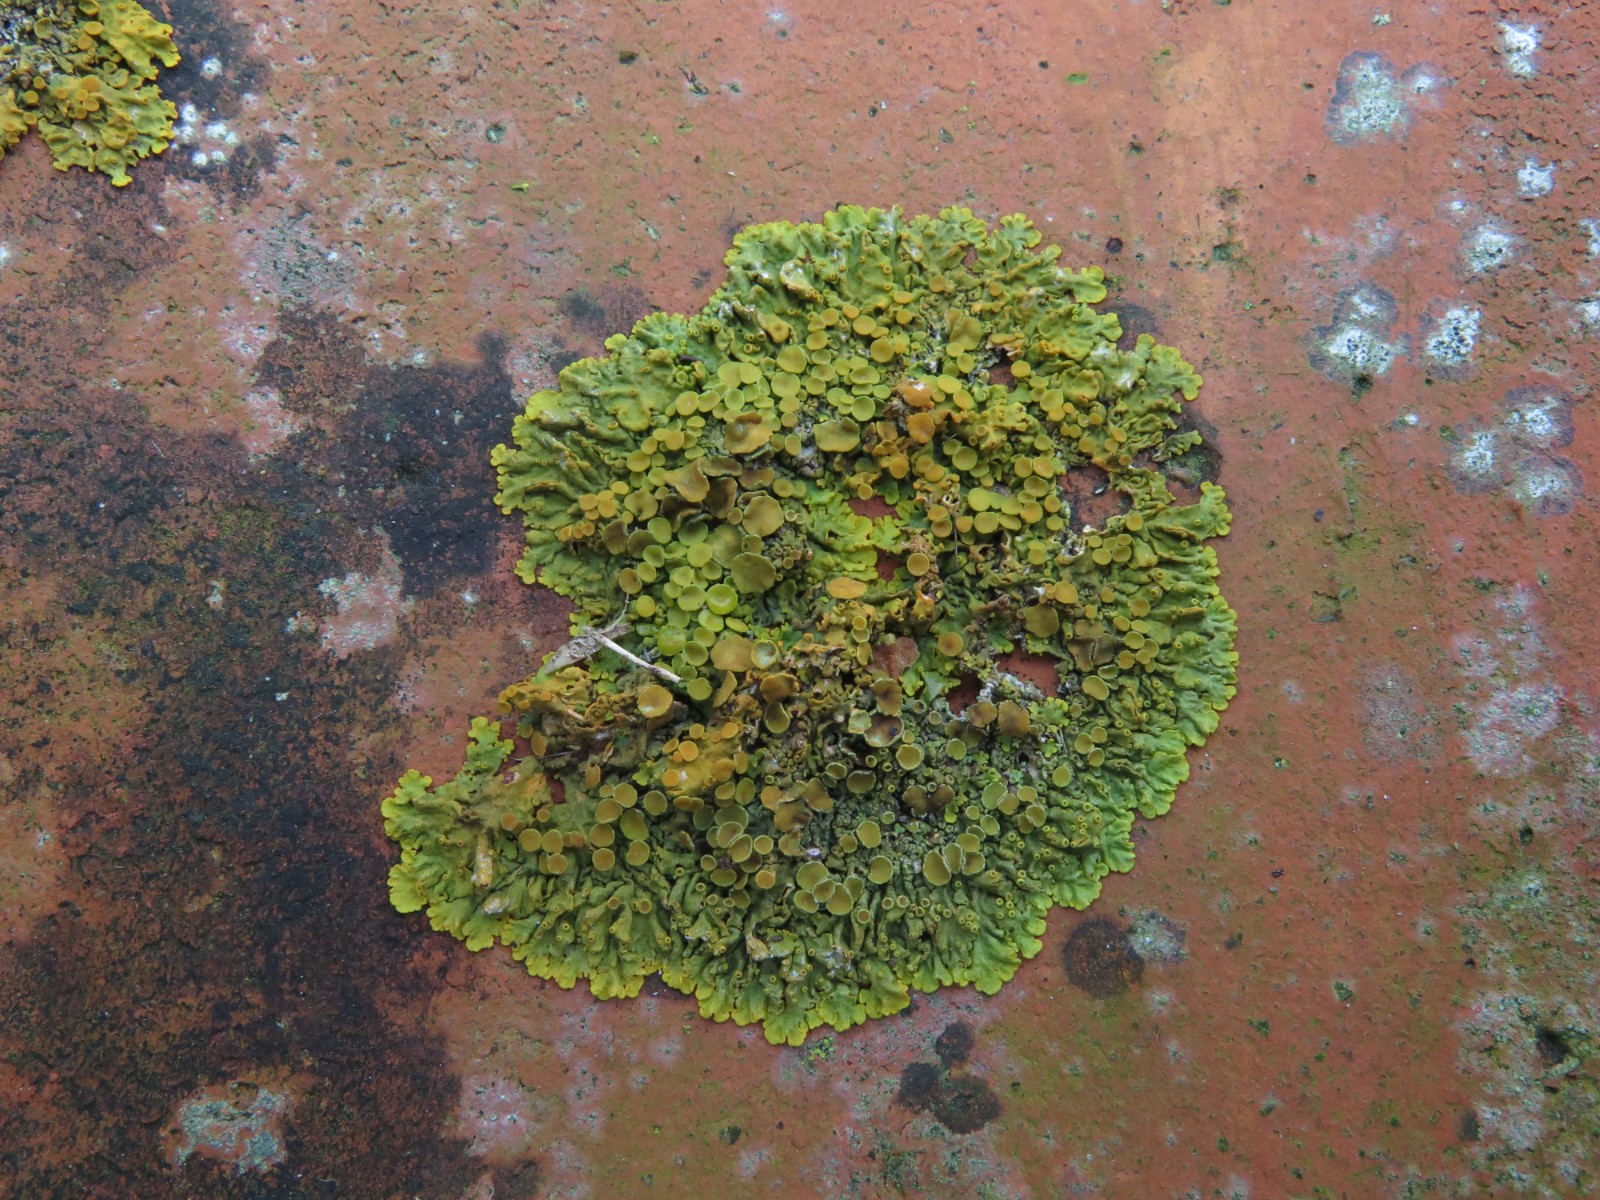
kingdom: Fungi
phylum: Ascomycota
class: Lecanoromycetes
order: Teloschistales
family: Teloschistaceae
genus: Xanthoria
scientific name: Xanthoria parietina
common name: almindelig væggelav
